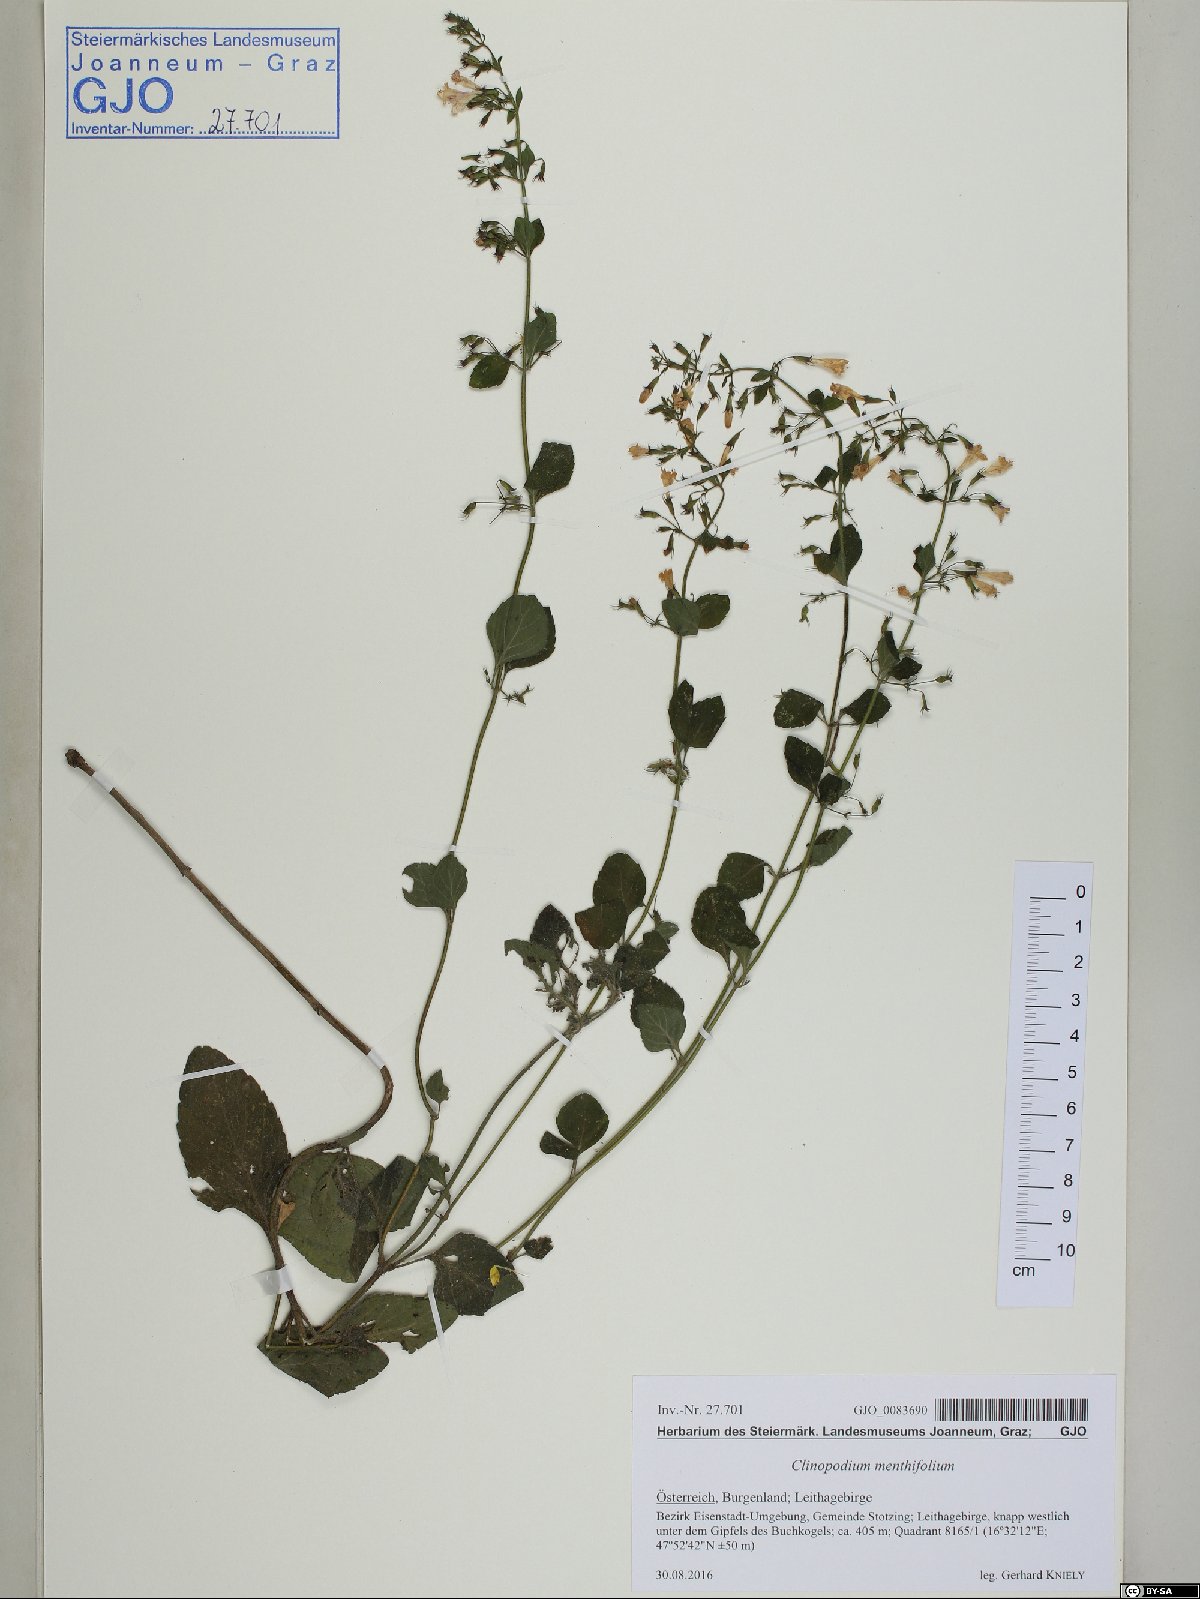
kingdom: Plantae
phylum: Tracheophyta
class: Magnoliopsida
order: Lamiales
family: Lamiaceae
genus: Clinopodium
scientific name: Clinopodium menthifolium
